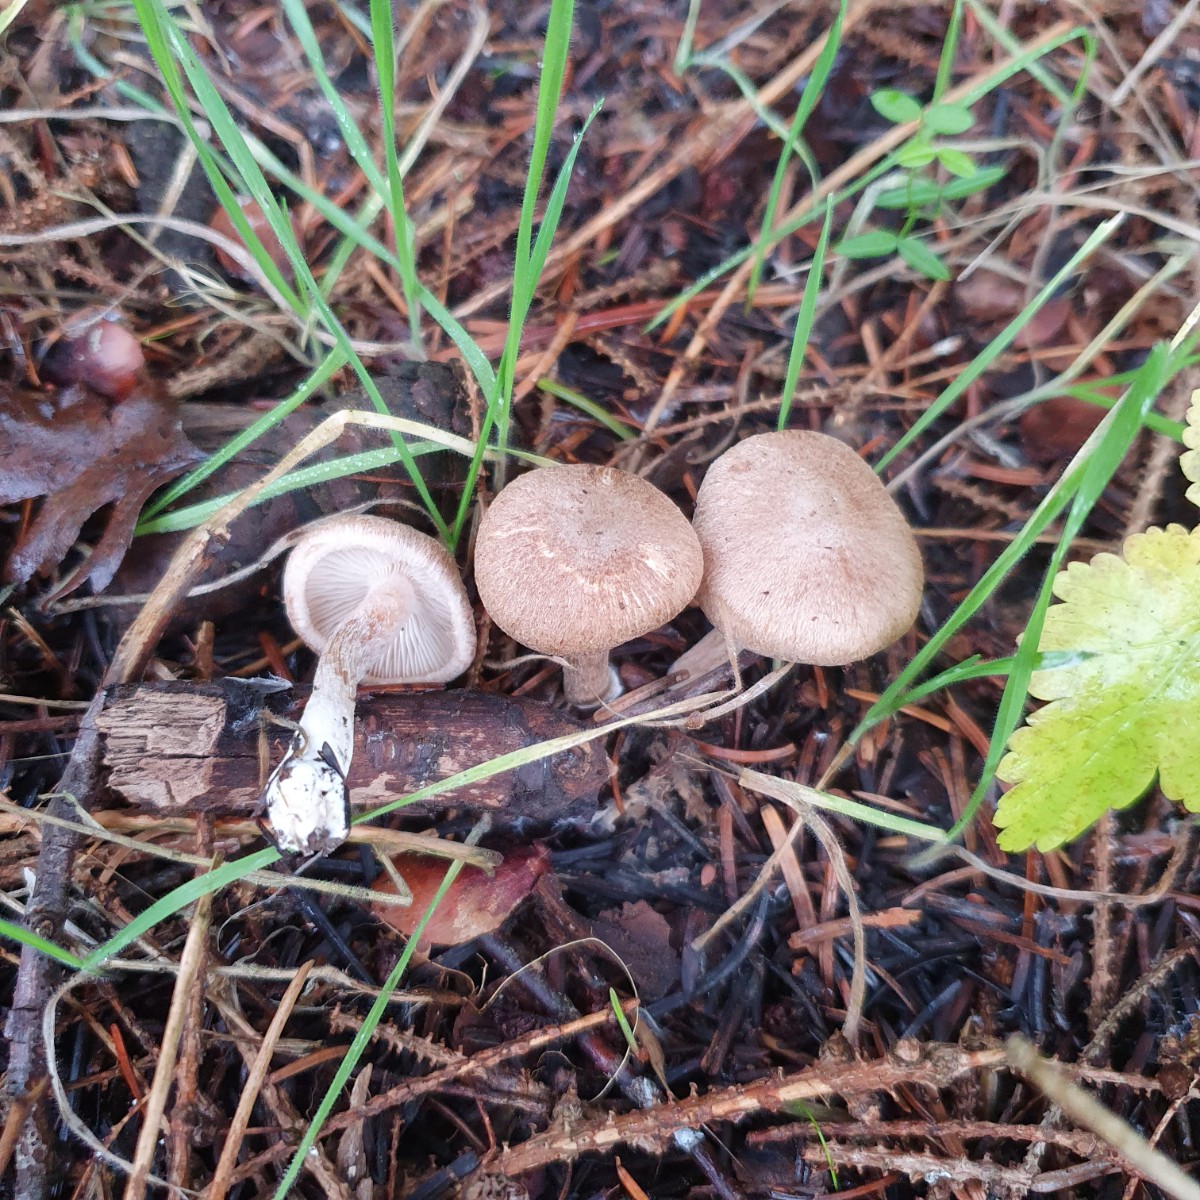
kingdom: Fungi
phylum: Basidiomycota
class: Agaricomycetes
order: Agaricales
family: Inocybaceae
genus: Inocybe
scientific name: Inocybe
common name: trævlhat
